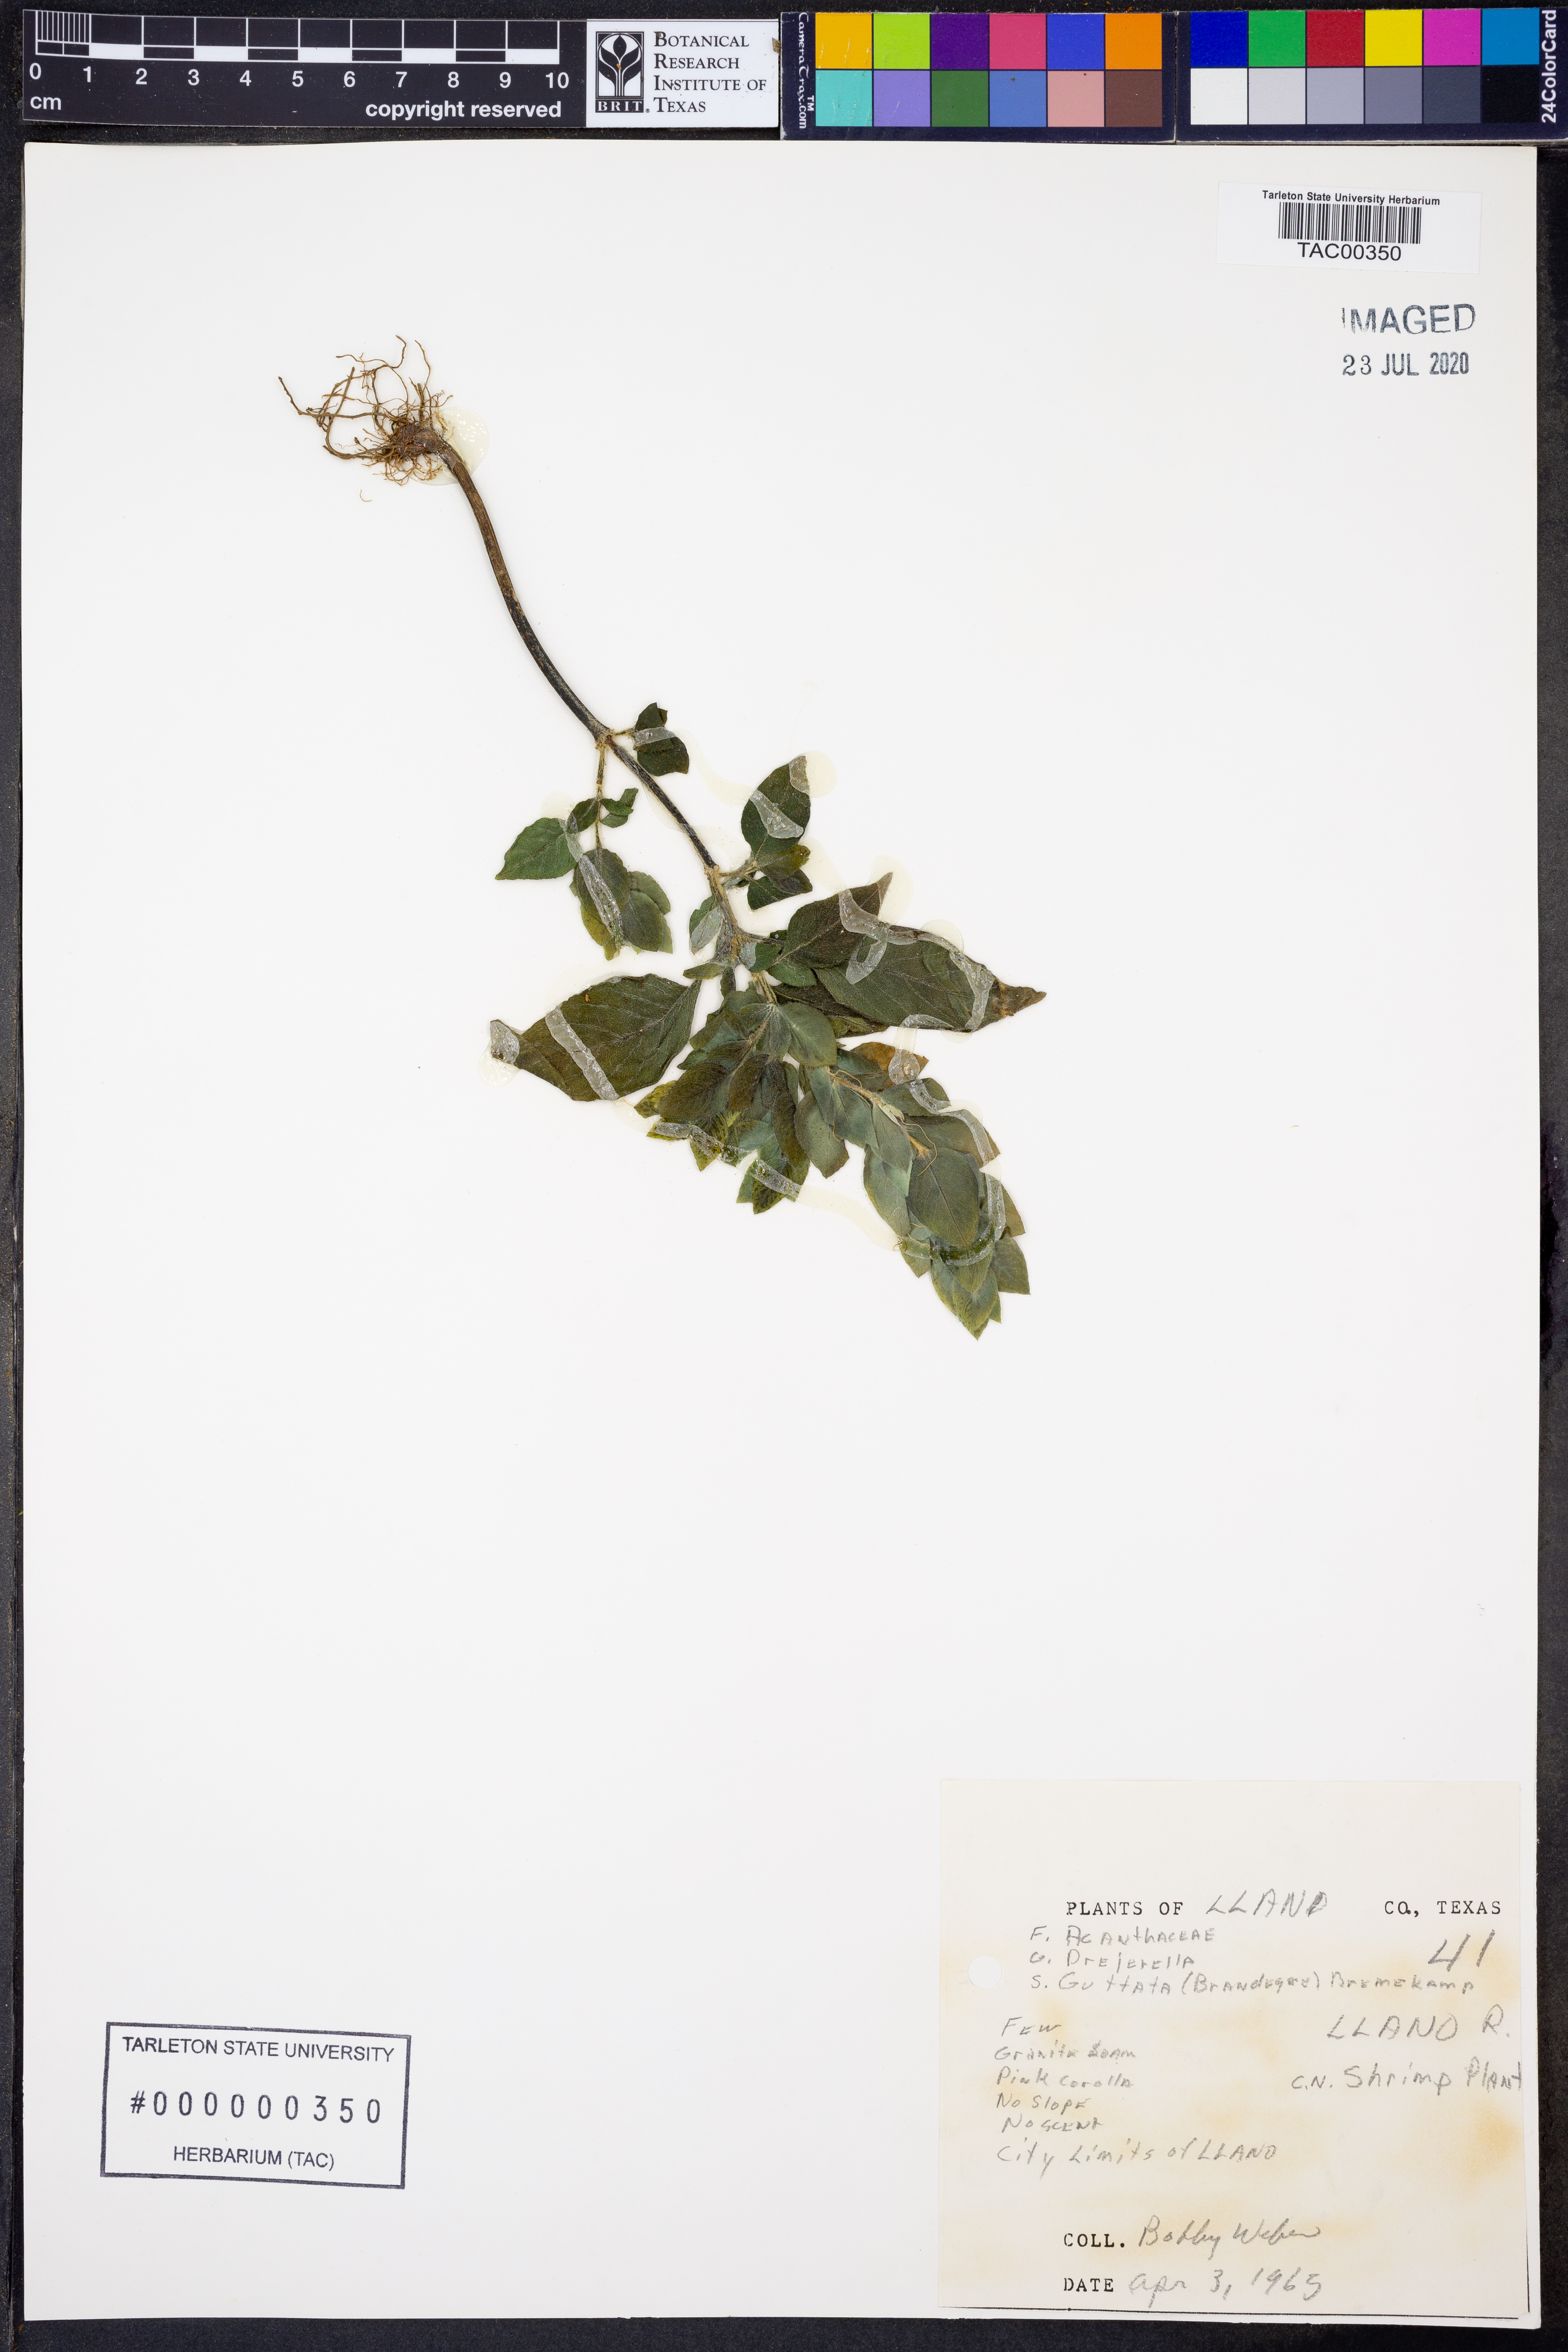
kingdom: Plantae
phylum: Tracheophyta
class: Magnoliopsida
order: Lamiales
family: Acanthaceae
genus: Justicia
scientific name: Justicia brandegeeana
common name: Shrimpplant
